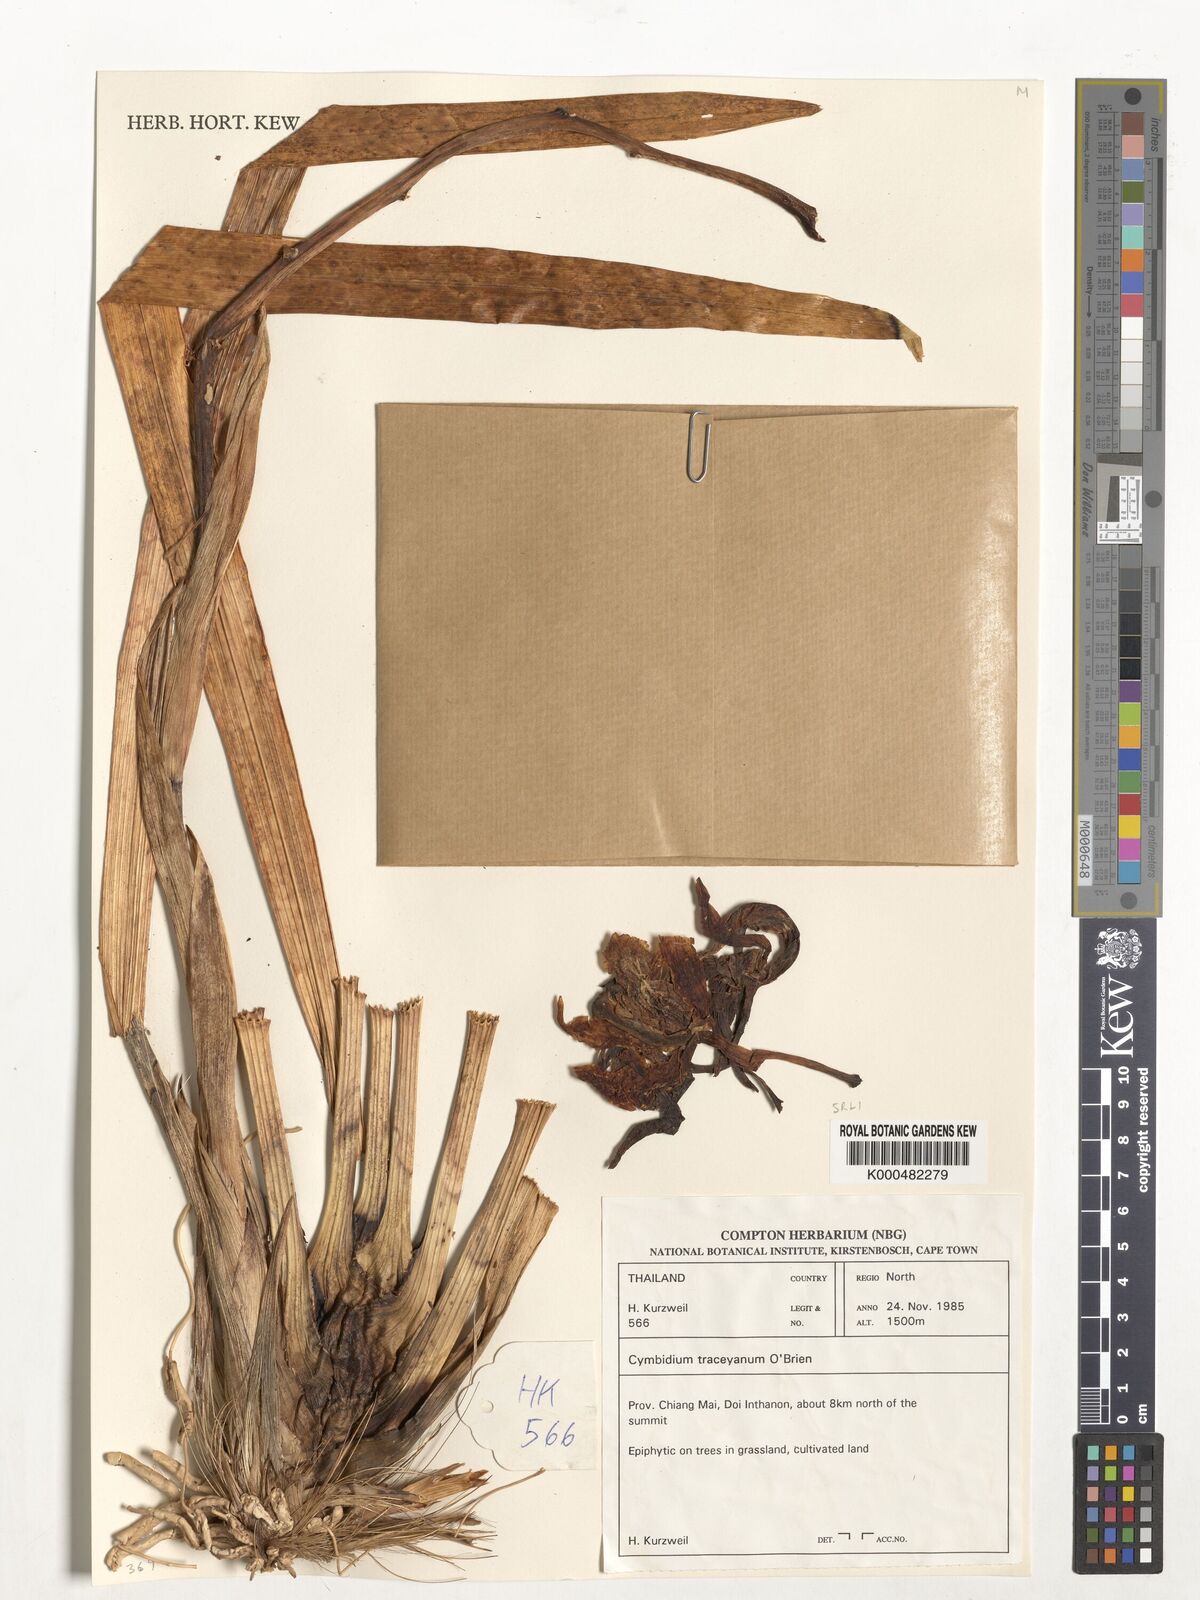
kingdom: Plantae
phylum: Tracheophyta
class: Liliopsida
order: Asparagales
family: Orchidaceae
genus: Cymbidium
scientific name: Cymbidium
